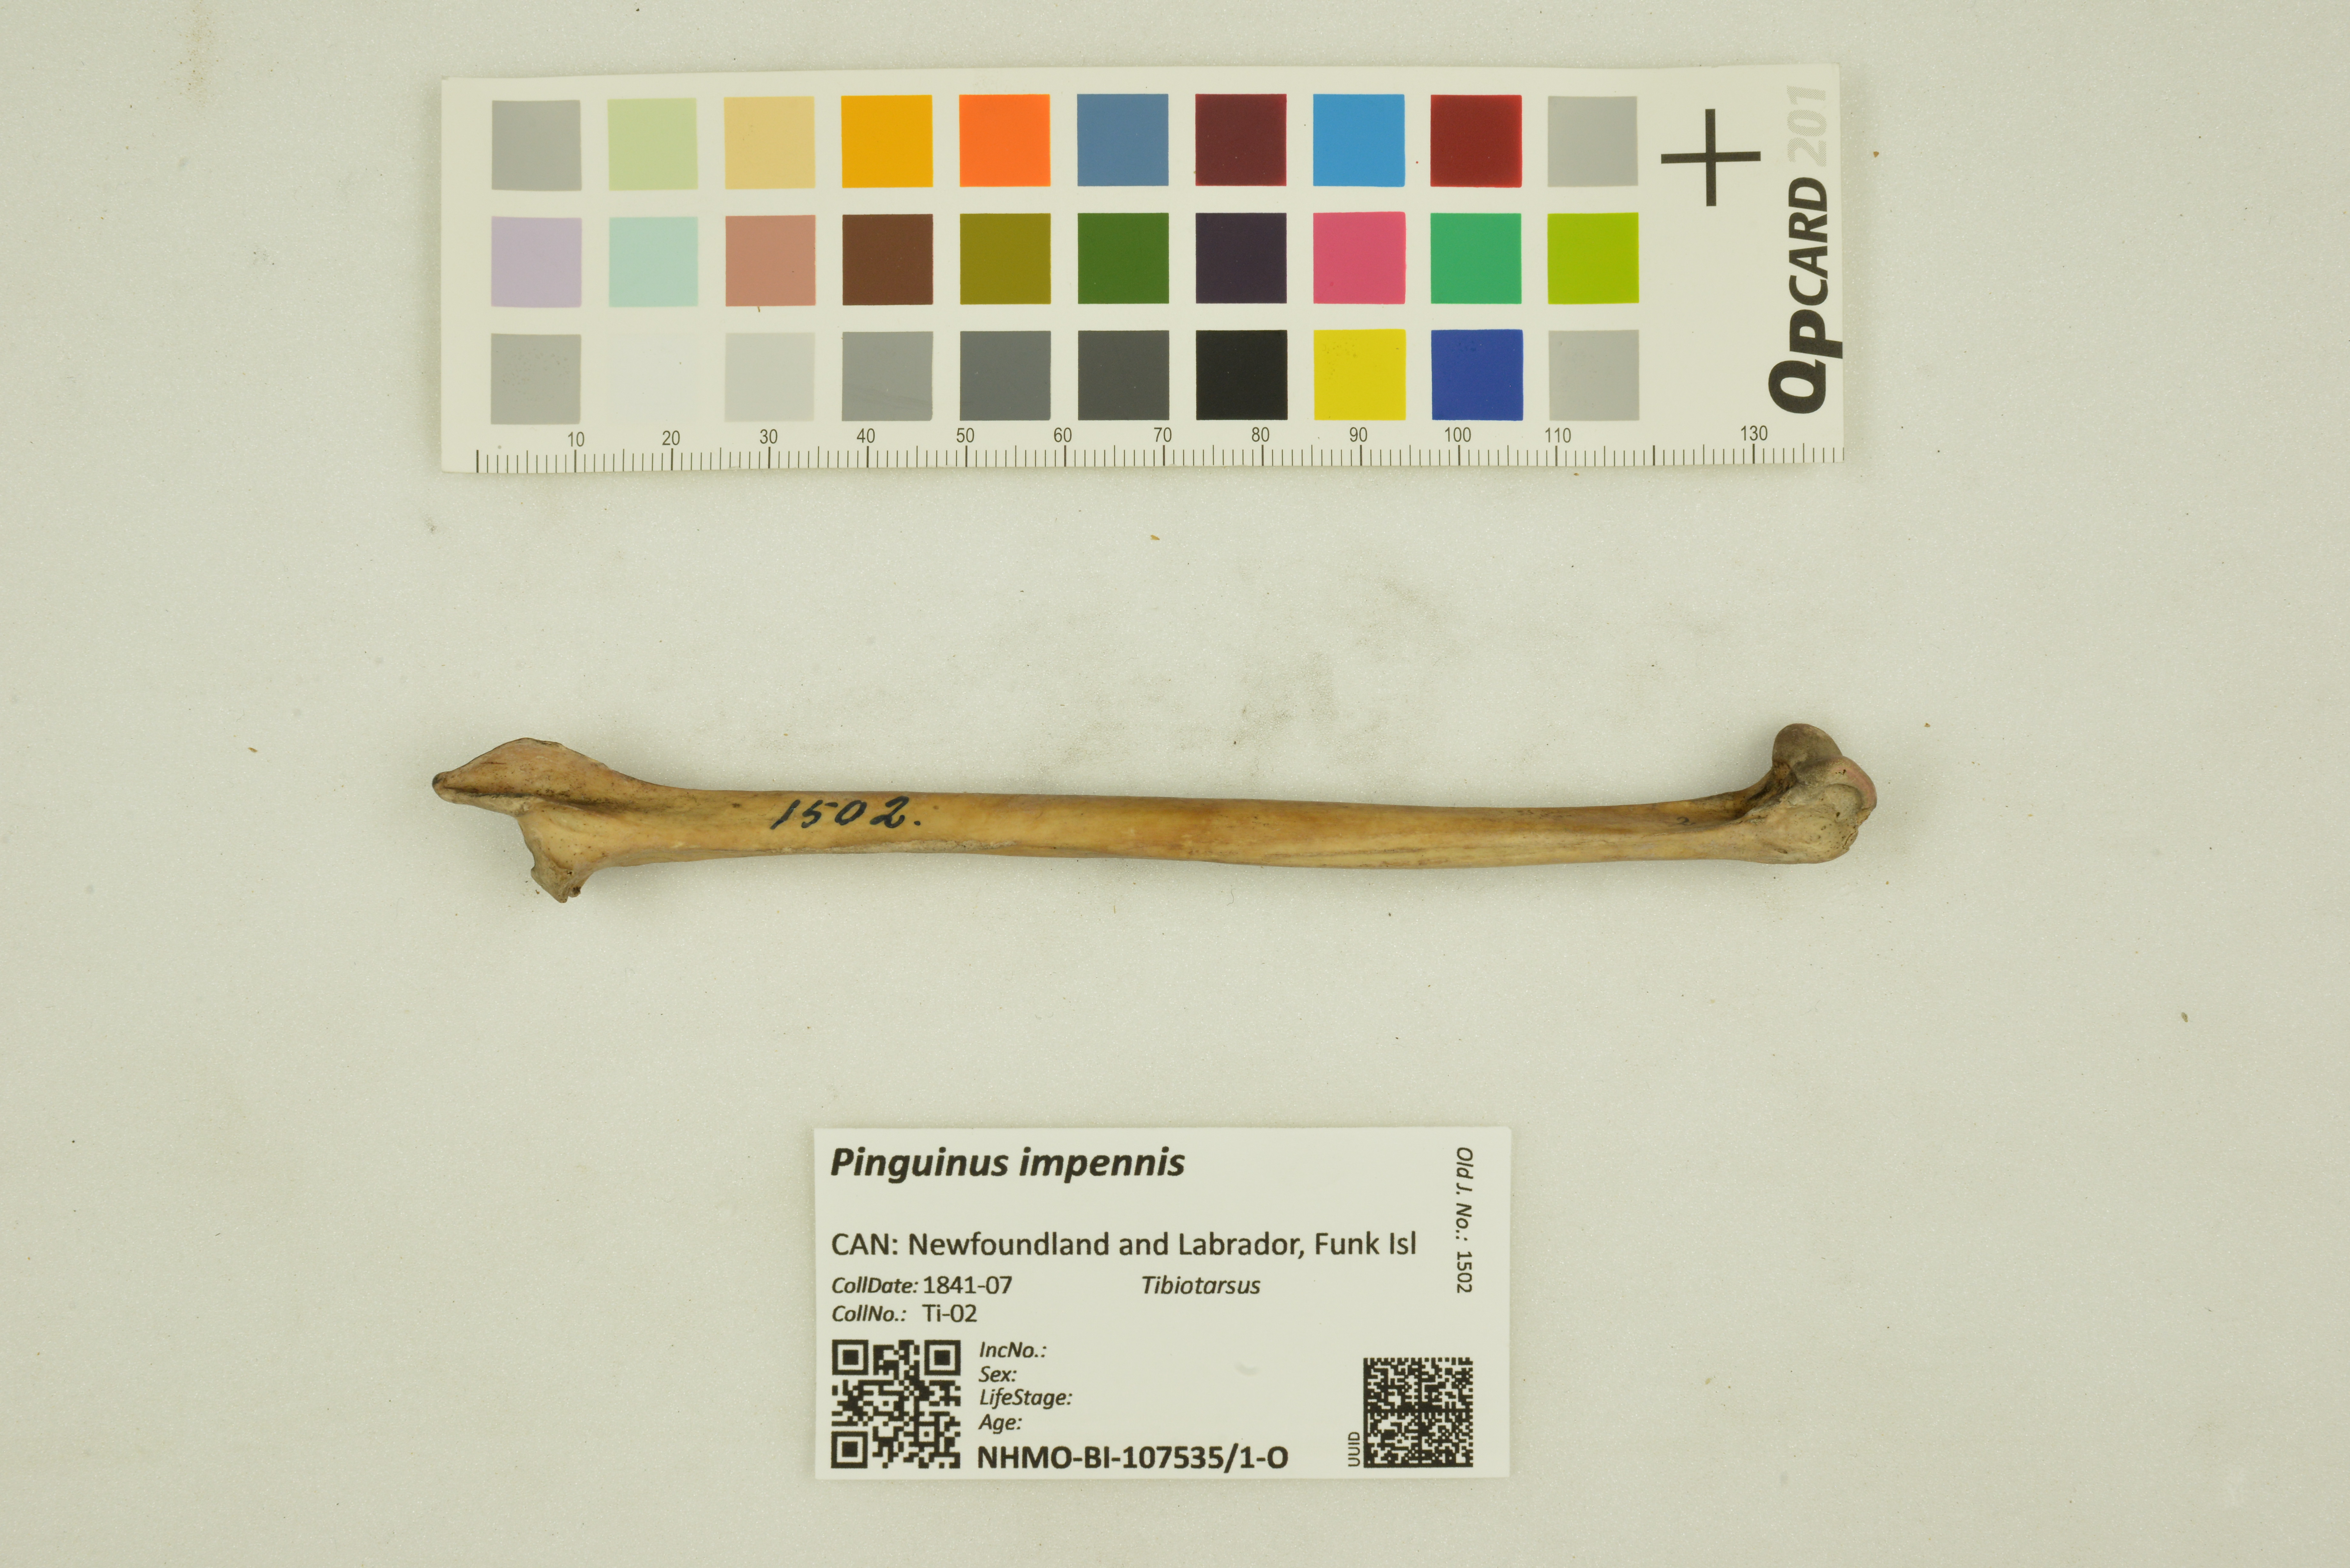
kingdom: Animalia
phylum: Chordata
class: Aves
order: Charadriiformes
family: Alcidae
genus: Pinguinus
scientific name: Pinguinus impennis
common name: Great auk
